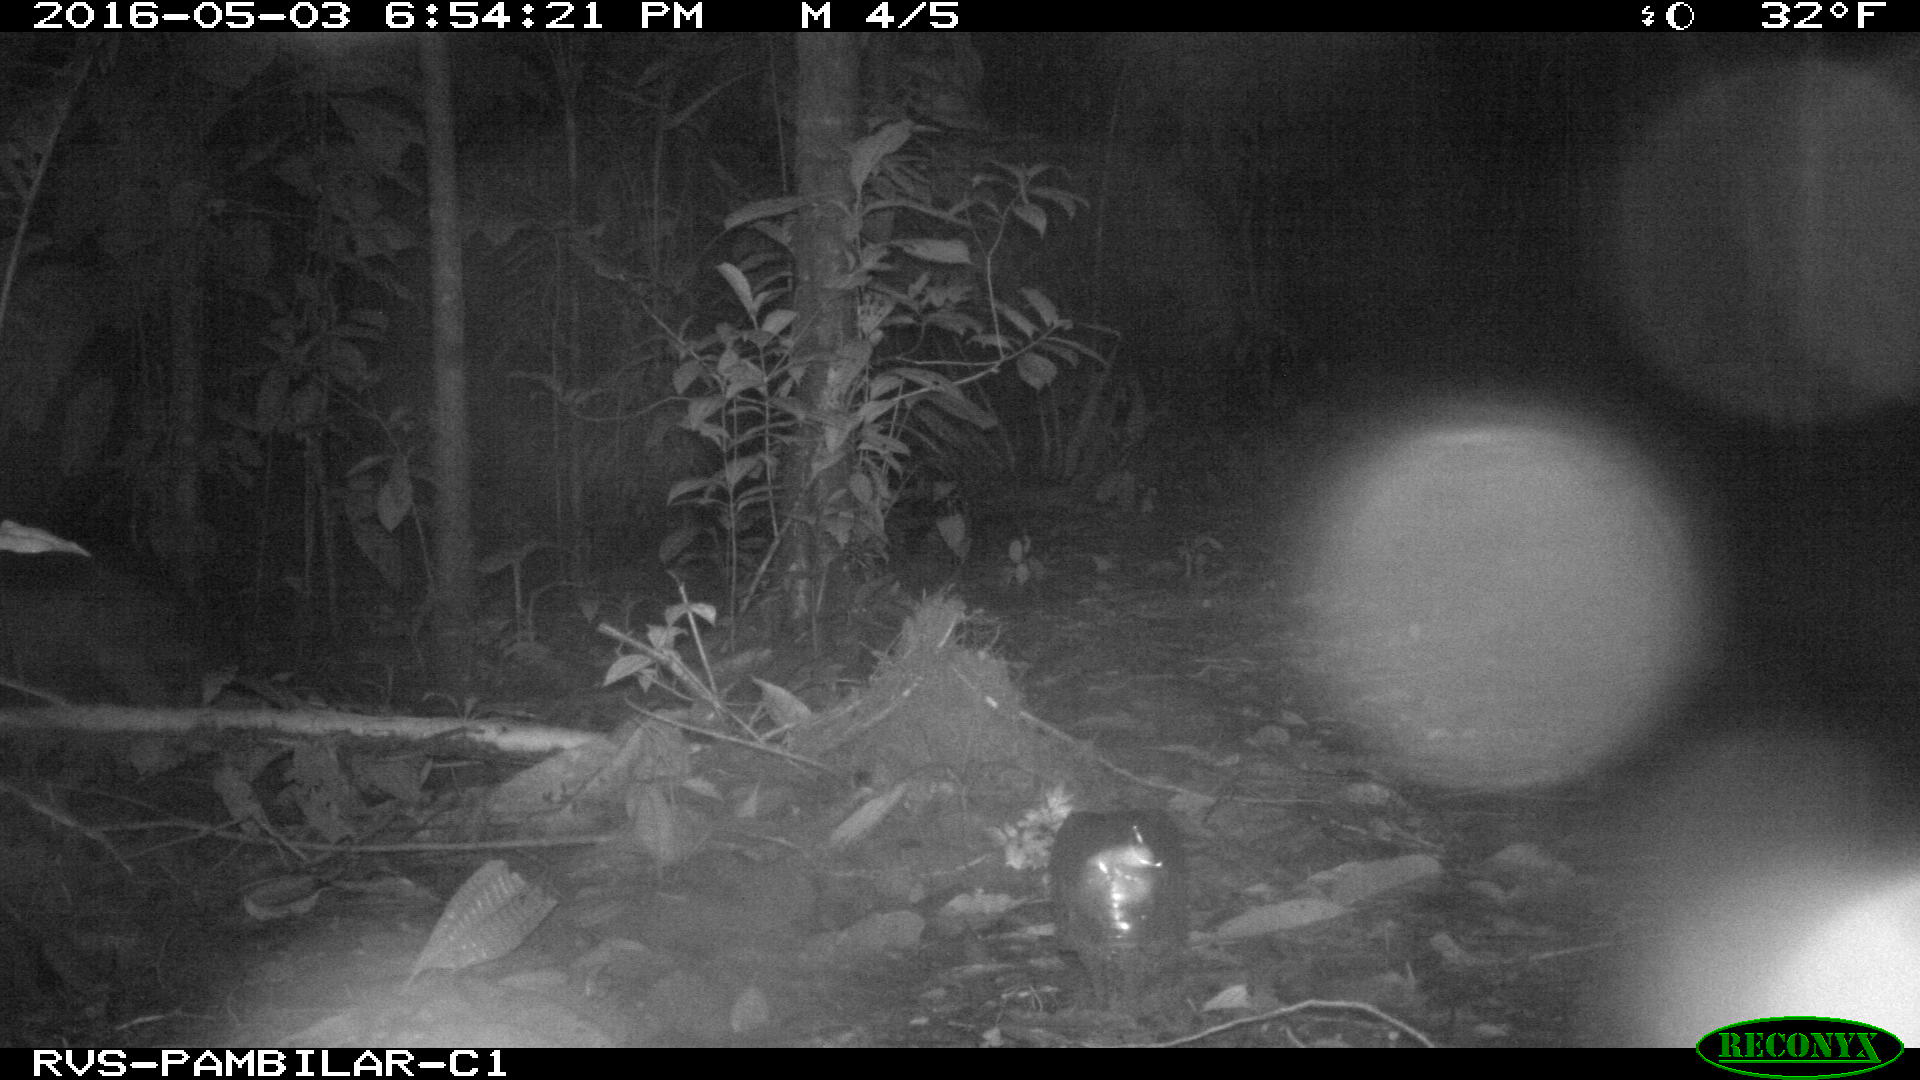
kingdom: Animalia
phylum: Chordata
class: Mammalia
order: Artiodactyla
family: Tayassuidae
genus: Tayassu
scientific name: Tayassu pecari
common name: White-lipped peccary
